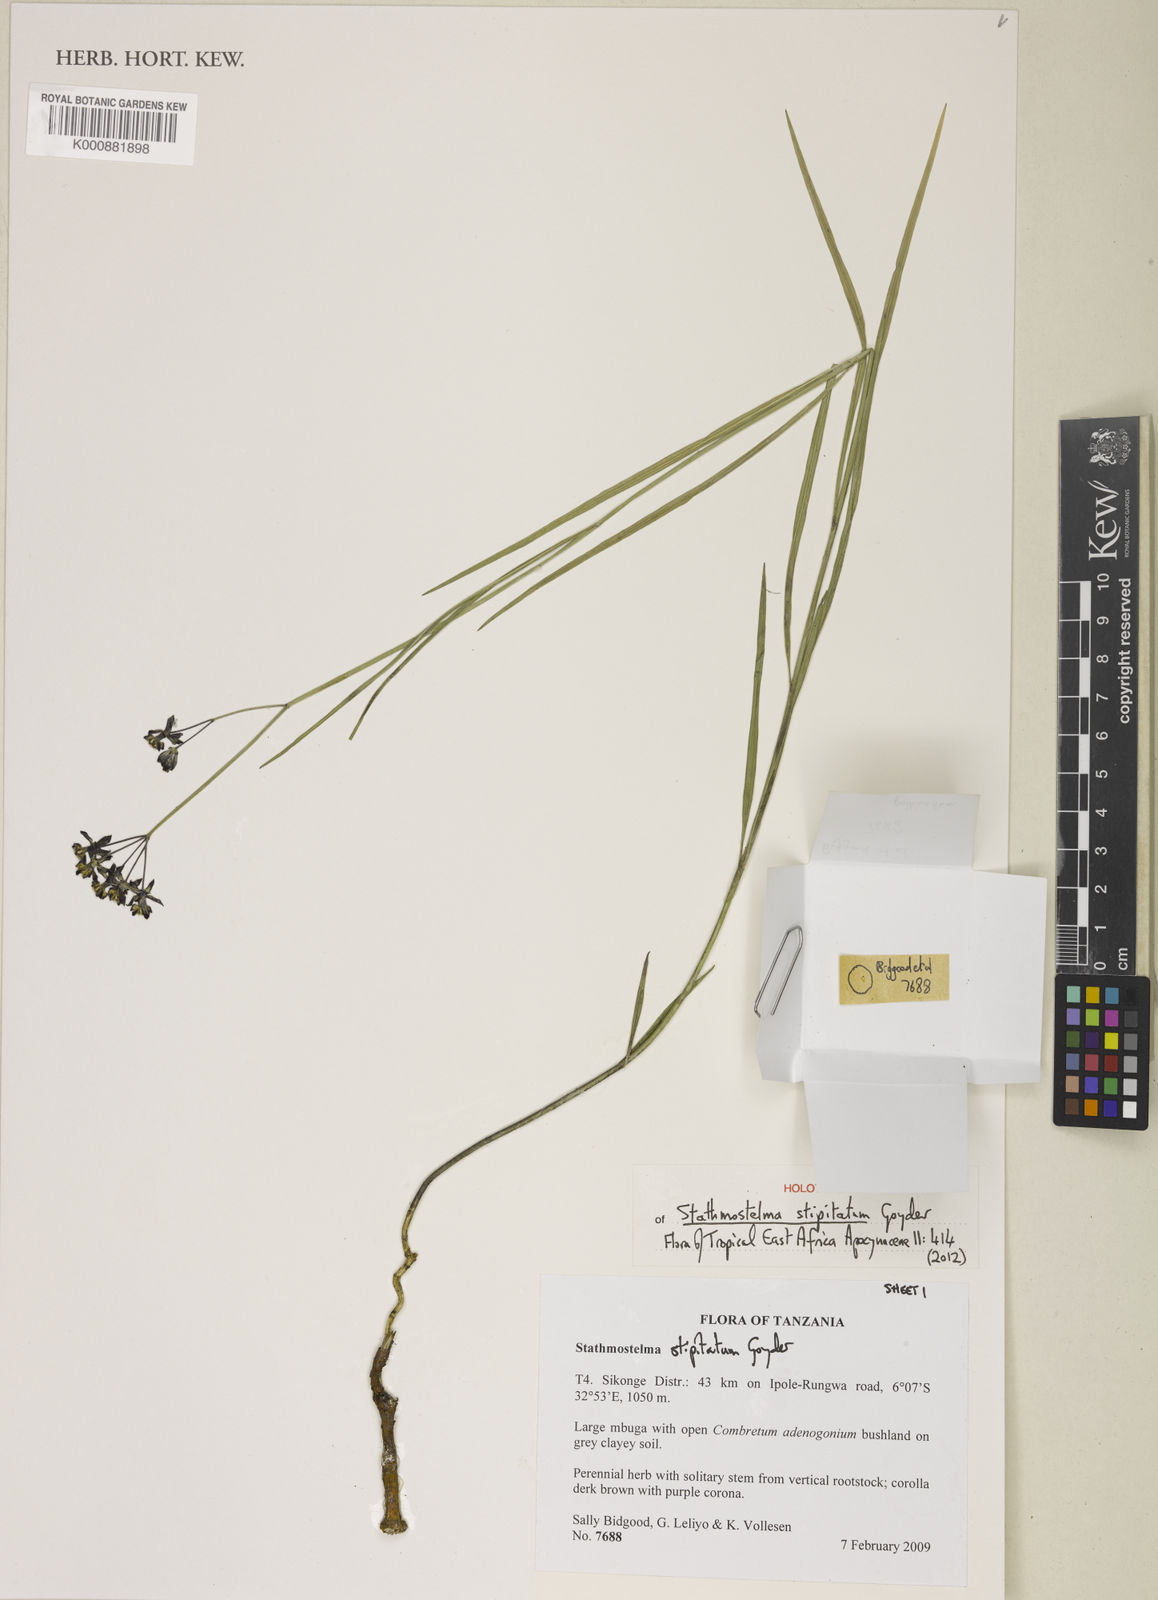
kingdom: Plantae
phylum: Tracheophyta
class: Magnoliopsida
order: Gentianales
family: Apocynaceae
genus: Stathmostelma
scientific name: Stathmostelma stipitatum
